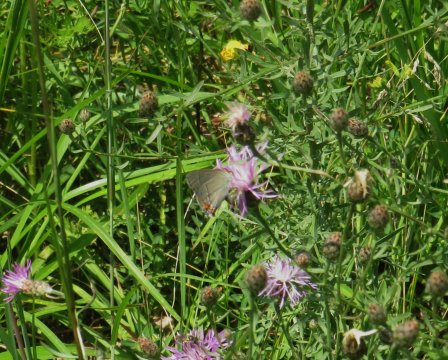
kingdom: Animalia
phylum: Arthropoda
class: Insecta
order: Lepidoptera
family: Lycaenidae
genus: Strymon
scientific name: Strymon melinus
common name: Gray Hairstreak
